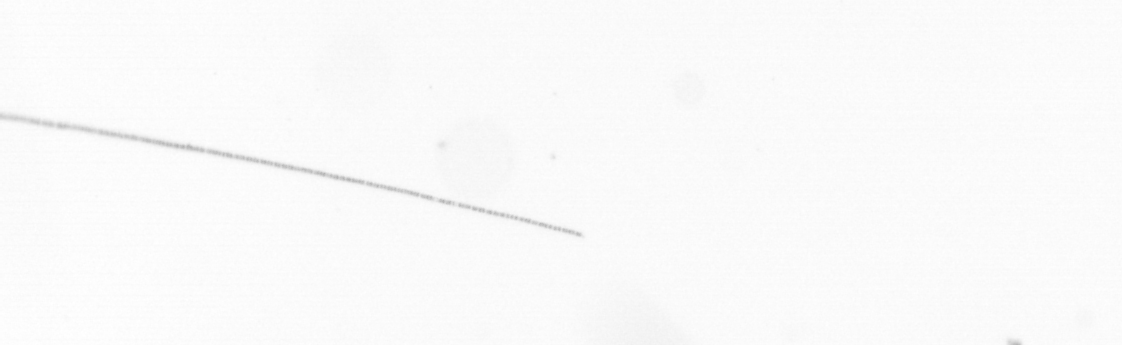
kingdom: Chromista
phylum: Ochrophyta
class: Bacillariophyceae
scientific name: Bacillariophyceae
